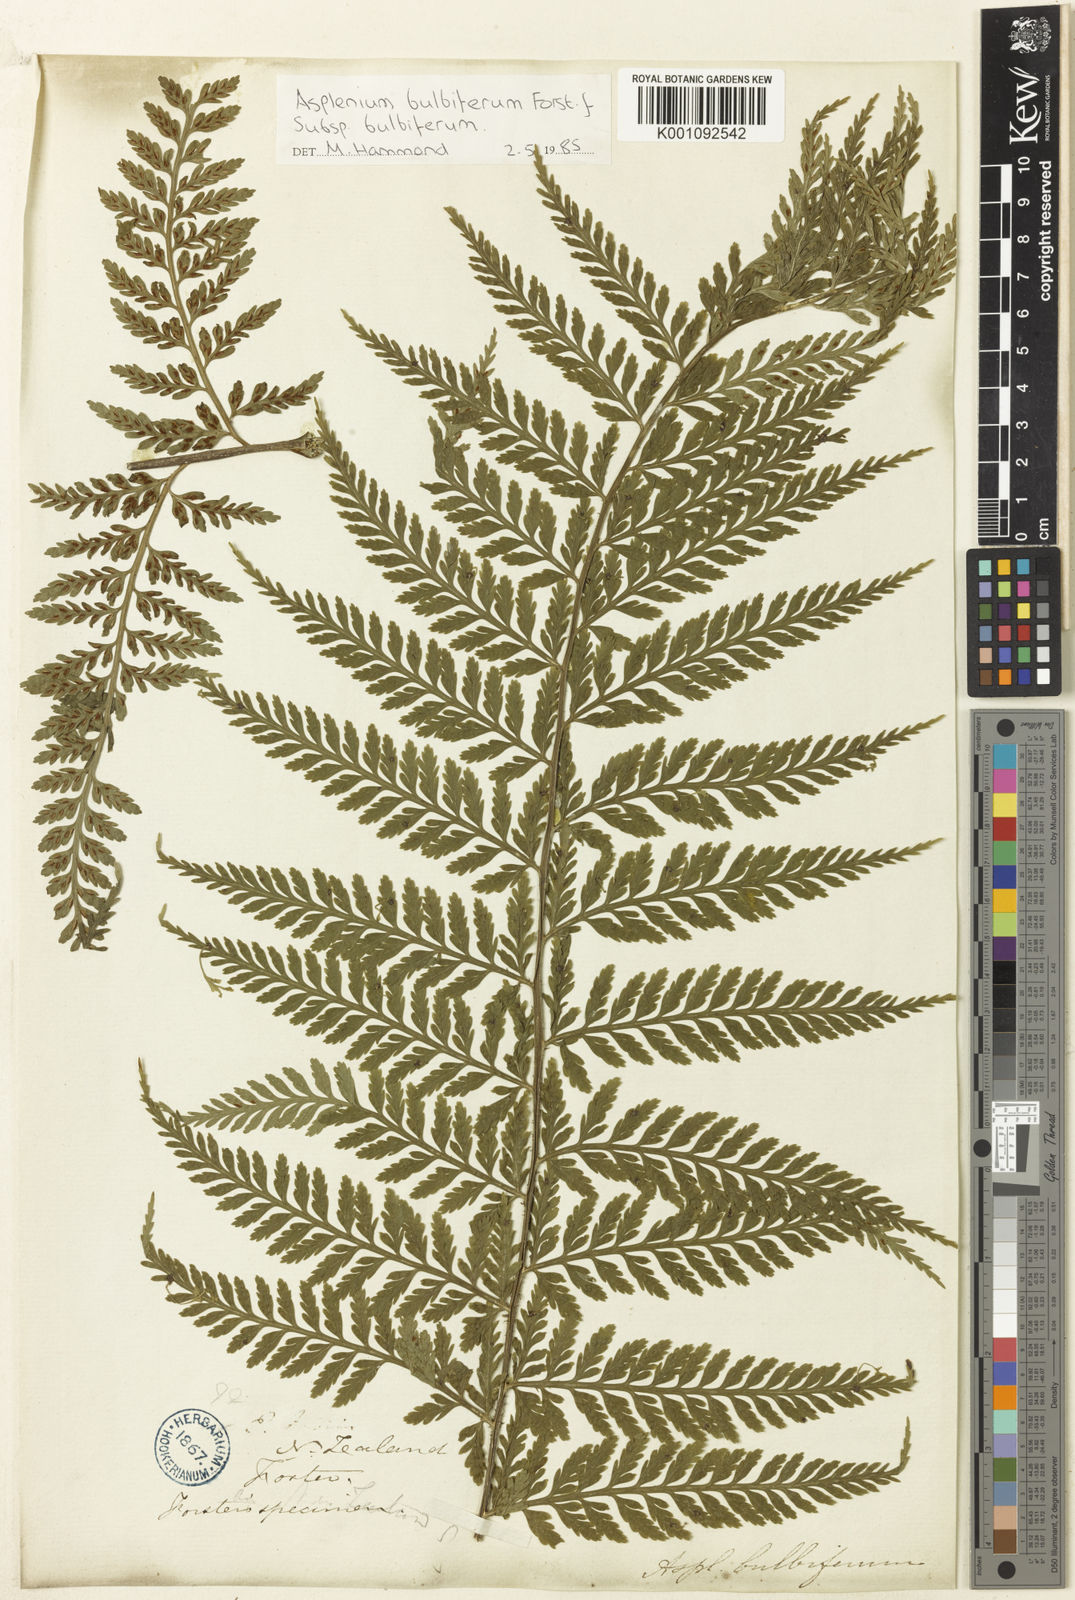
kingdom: Plantae
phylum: Tracheophyta
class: Polypodiopsida
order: Polypodiales
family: Aspleniaceae
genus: Asplenium
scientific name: Asplenium bulbiferum
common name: Mother fern
